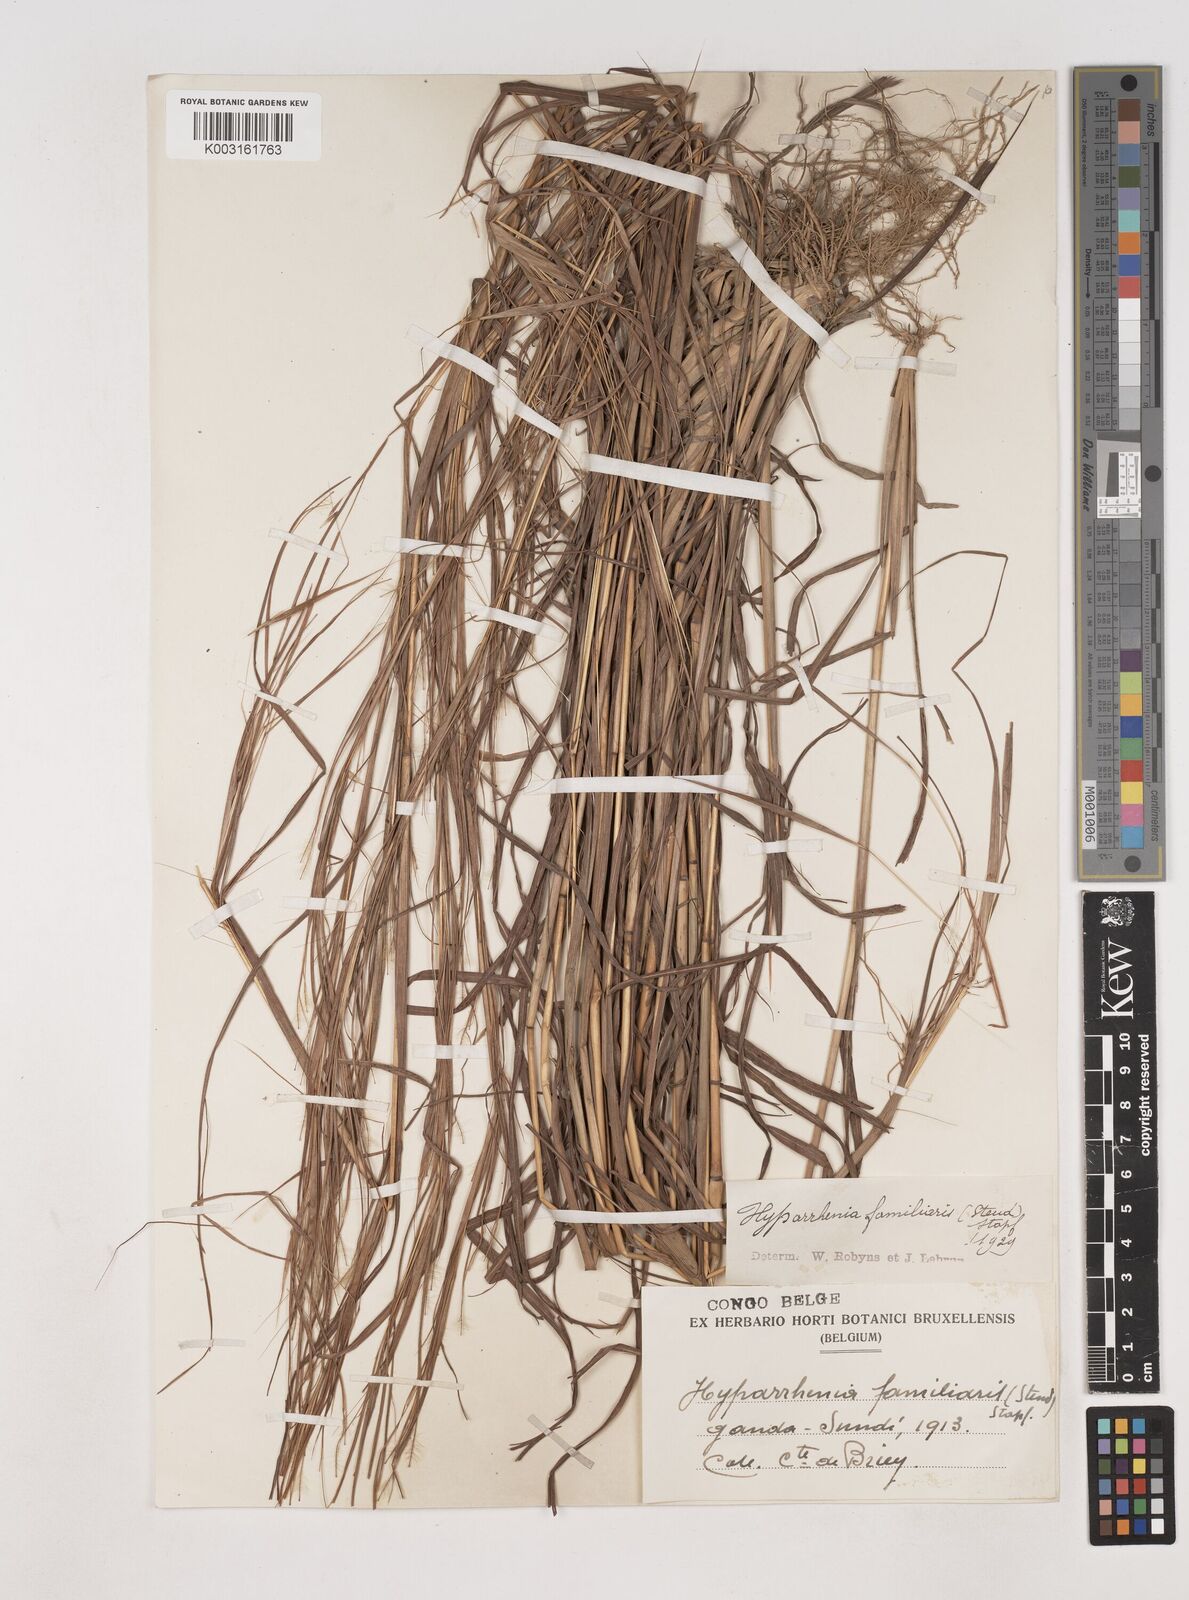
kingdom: Plantae
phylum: Tracheophyta
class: Liliopsida
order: Poales
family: Poaceae
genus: Hyparrhenia
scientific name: Hyparrhenia familiaris
